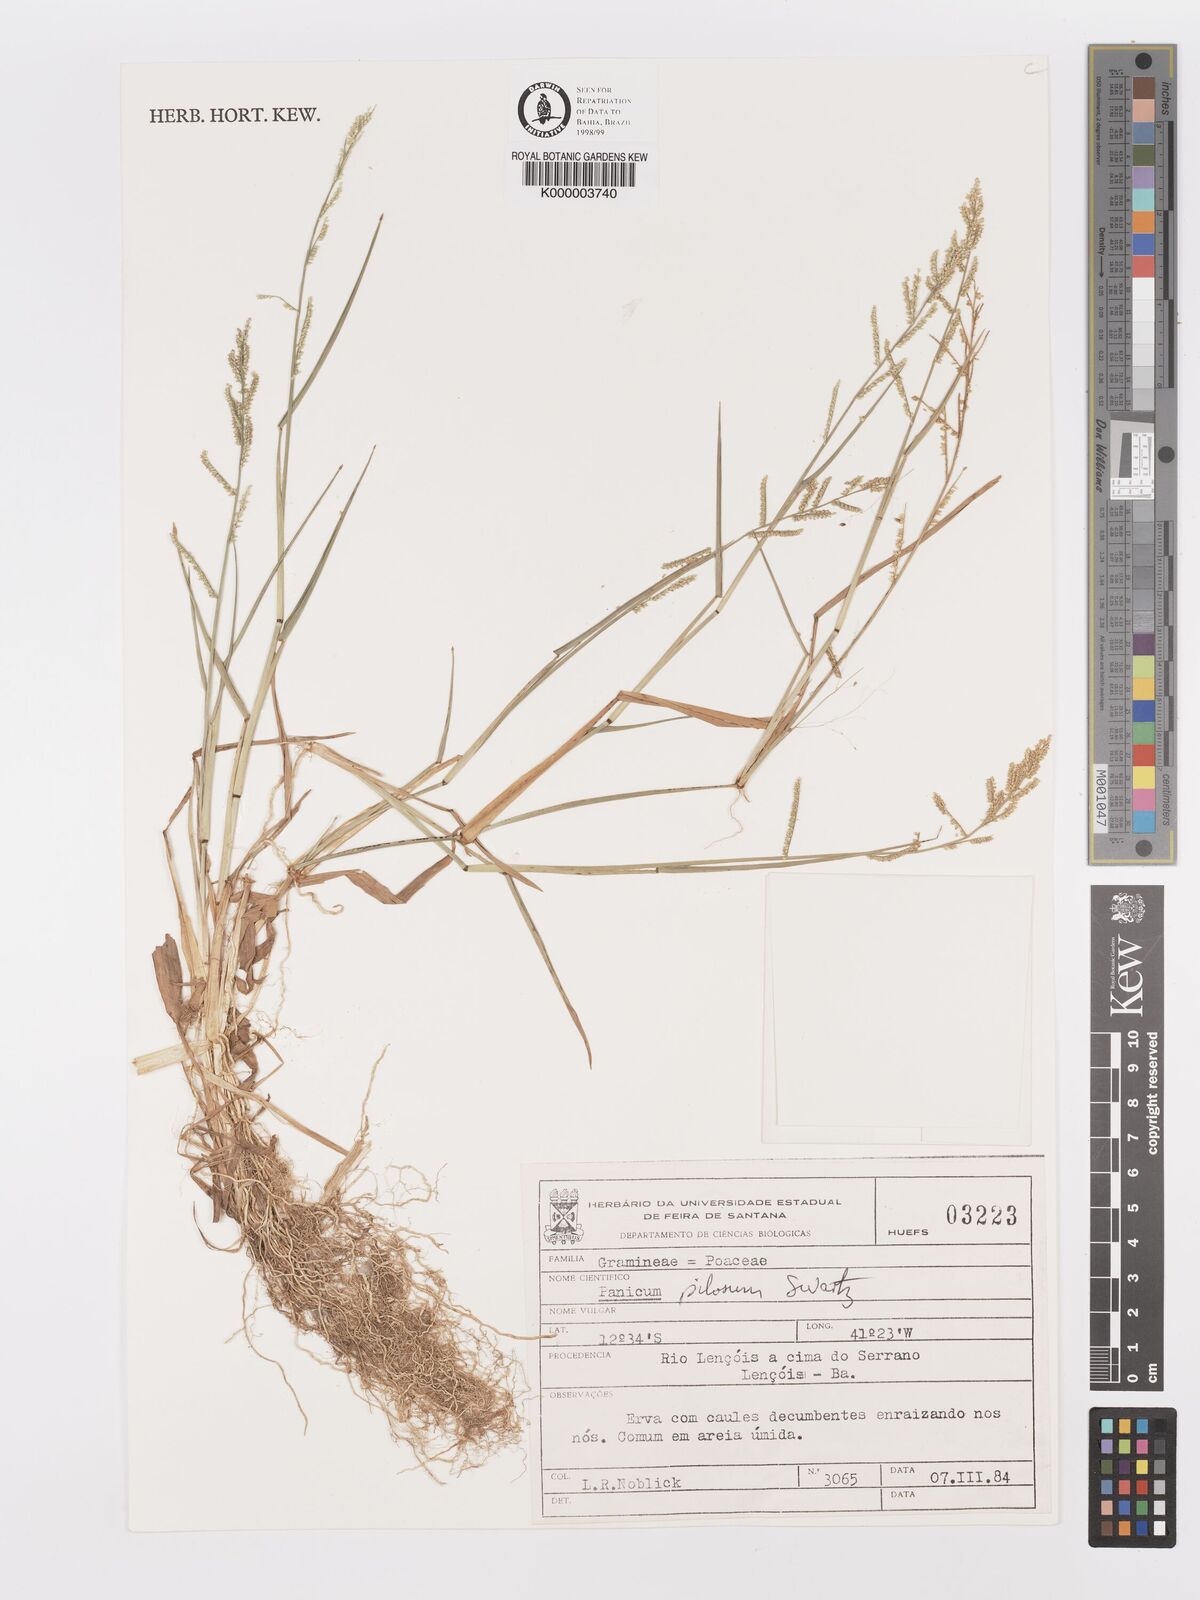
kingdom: Plantae
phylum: Tracheophyta
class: Liliopsida
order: Poales
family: Poaceae
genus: Rugoloa
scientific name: Rugoloa pilosa
